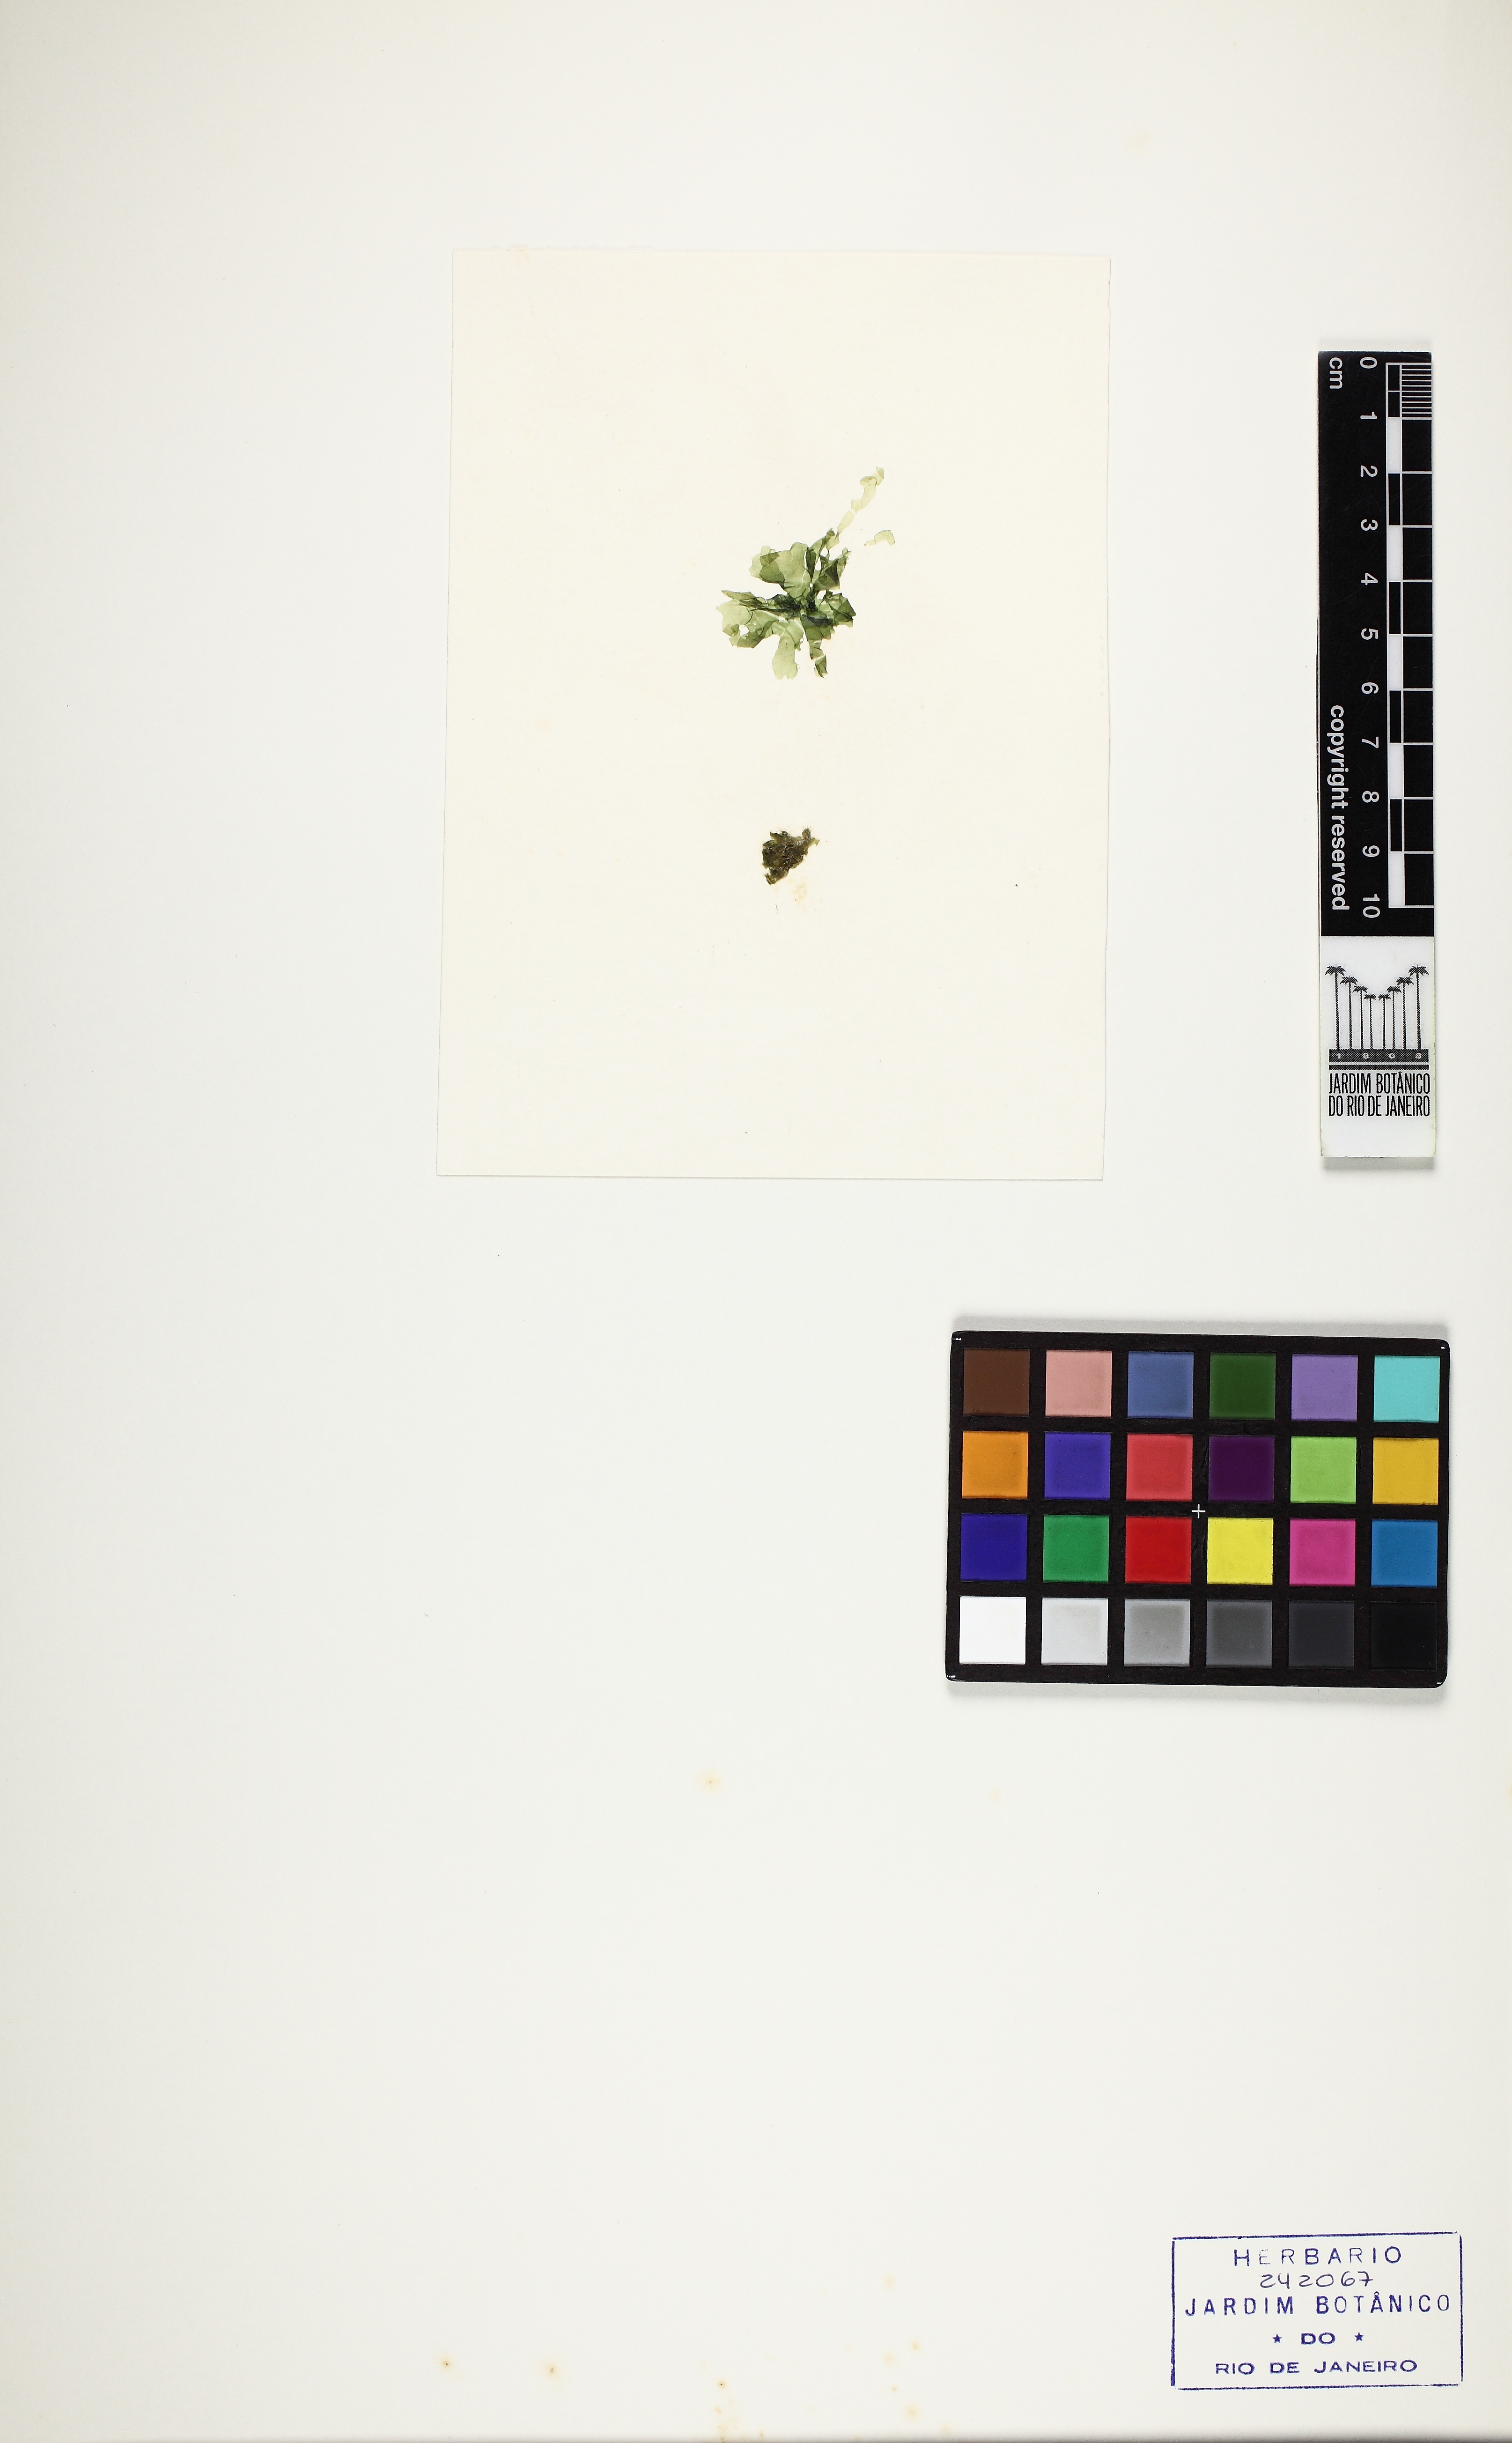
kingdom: Plantae
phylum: Chlorophyta
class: Ulvophyceae
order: Ulvales
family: Ulvaceae
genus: Ulva
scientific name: Ulva lactuca
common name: Sea lettuce
